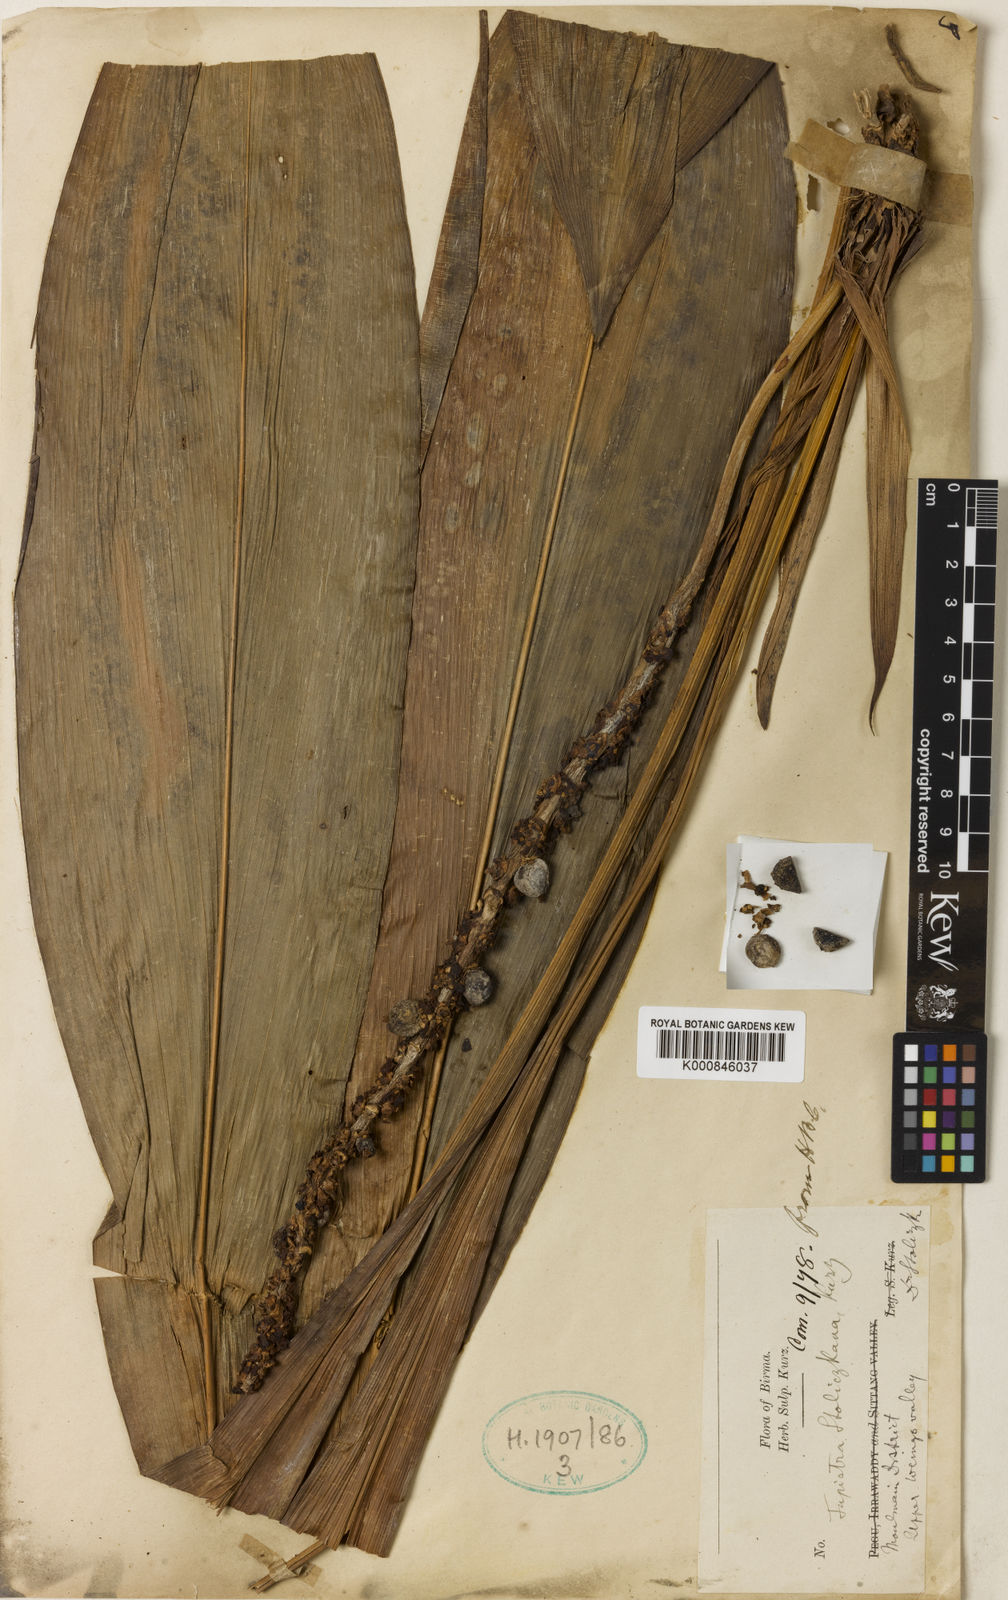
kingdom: Plantae
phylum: Tracheophyta
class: Liliopsida
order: Asparagales
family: Asparagaceae
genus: Tupistra
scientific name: Tupistra stoliczana
